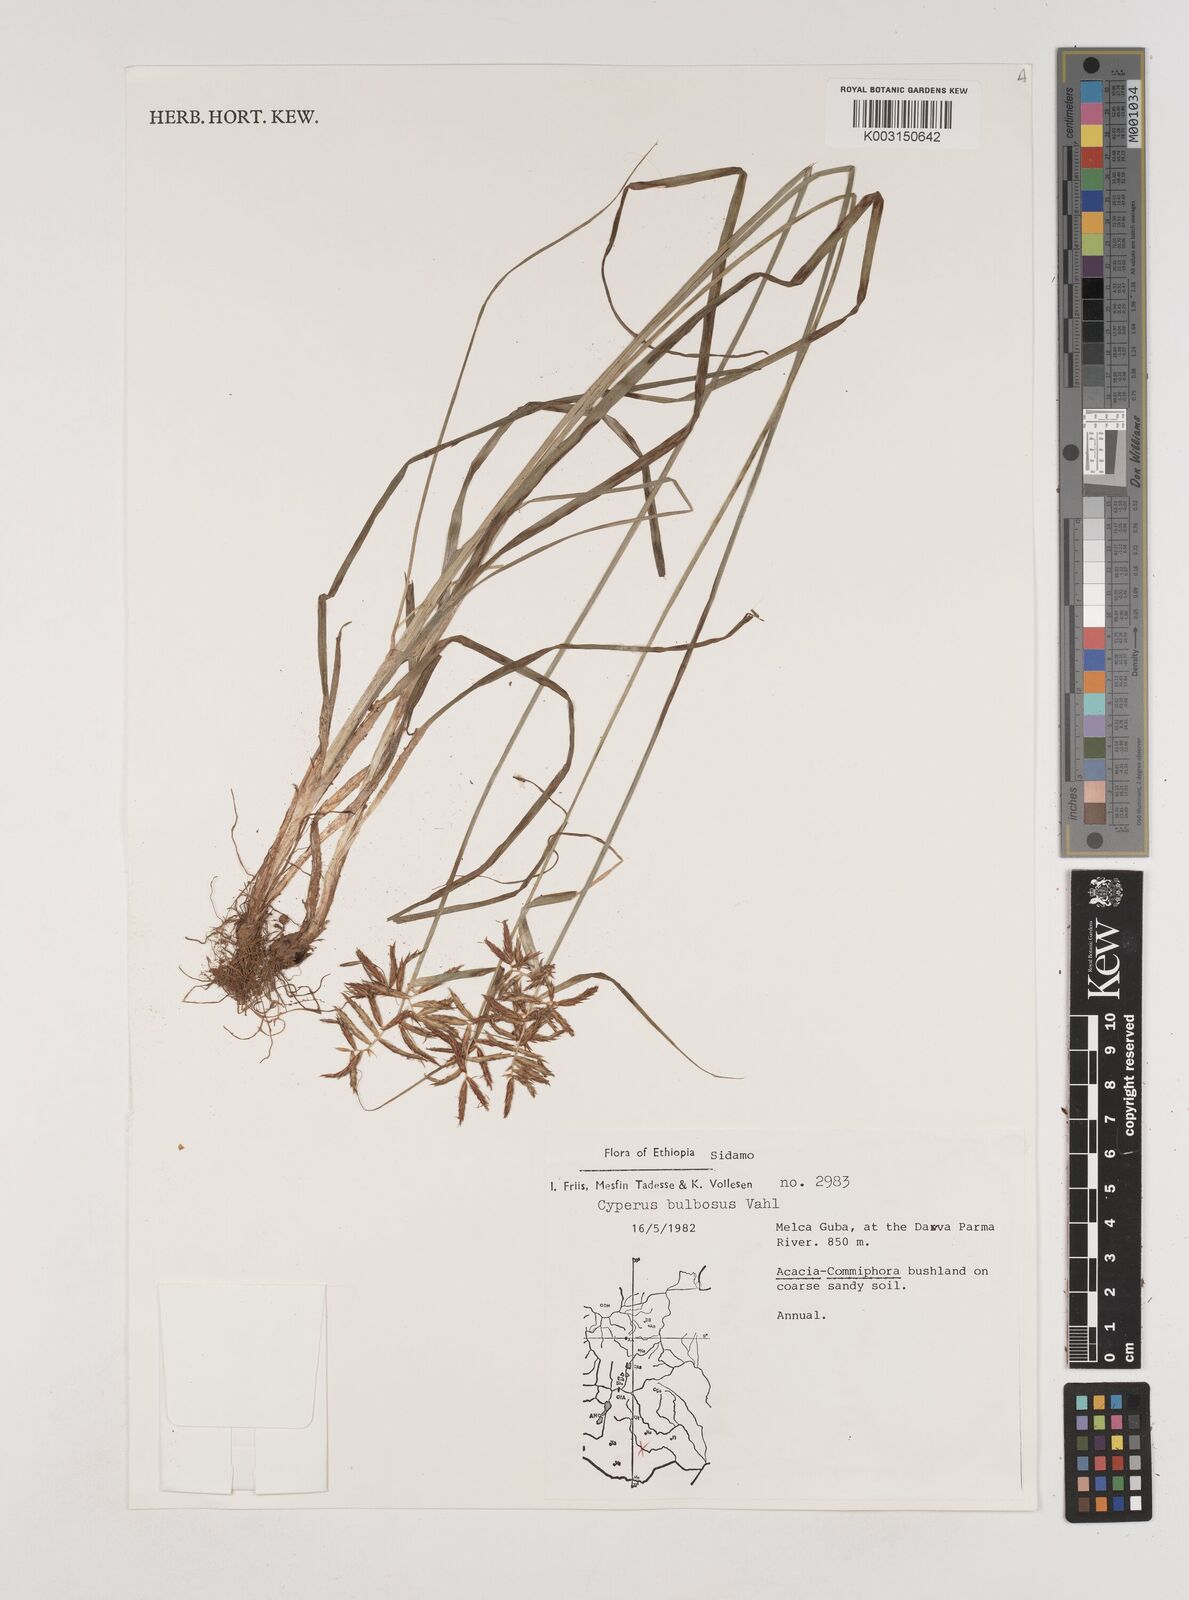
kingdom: Plantae
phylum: Tracheophyta
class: Liliopsida
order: Poales
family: Cyperaceae
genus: Cyperus
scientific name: Cyperus bulbosus
